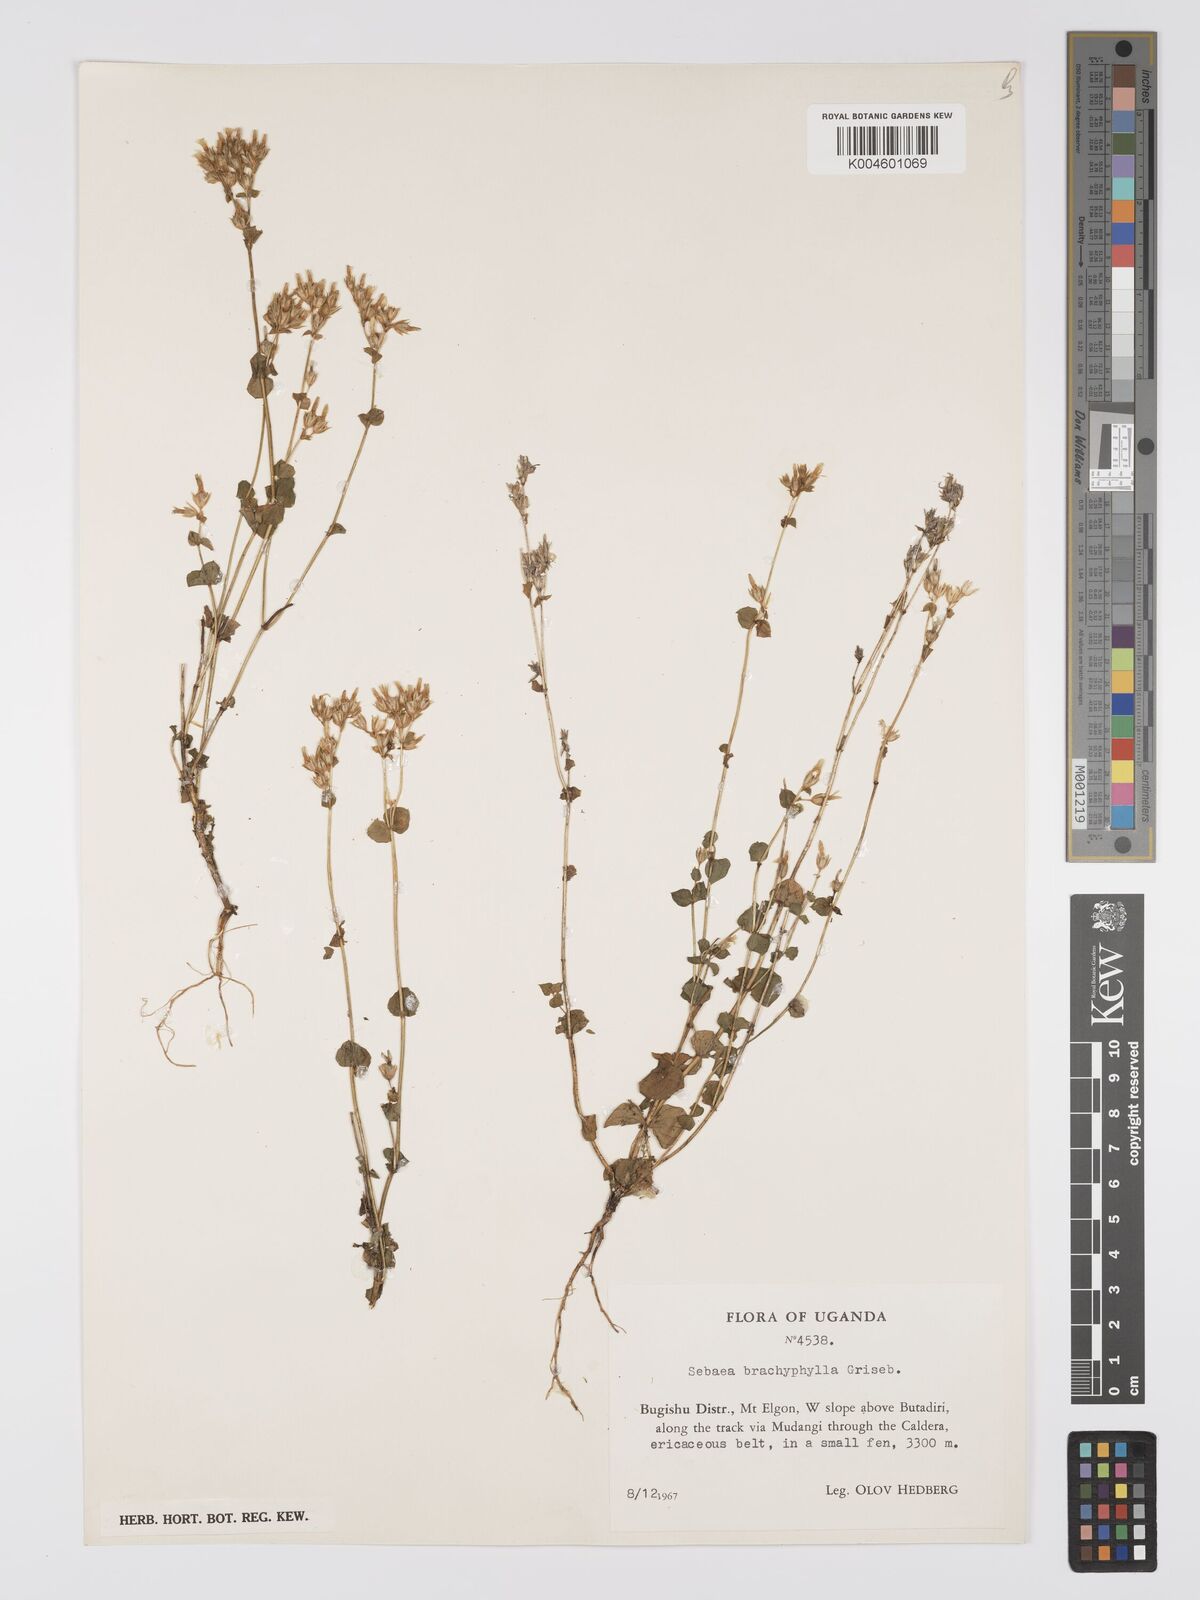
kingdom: Plantae
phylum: Tracheophyta
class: Magnoliopsida
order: Gentianales
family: Gentianaceae
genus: Sebaea
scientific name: Sebaea brachyphylla
